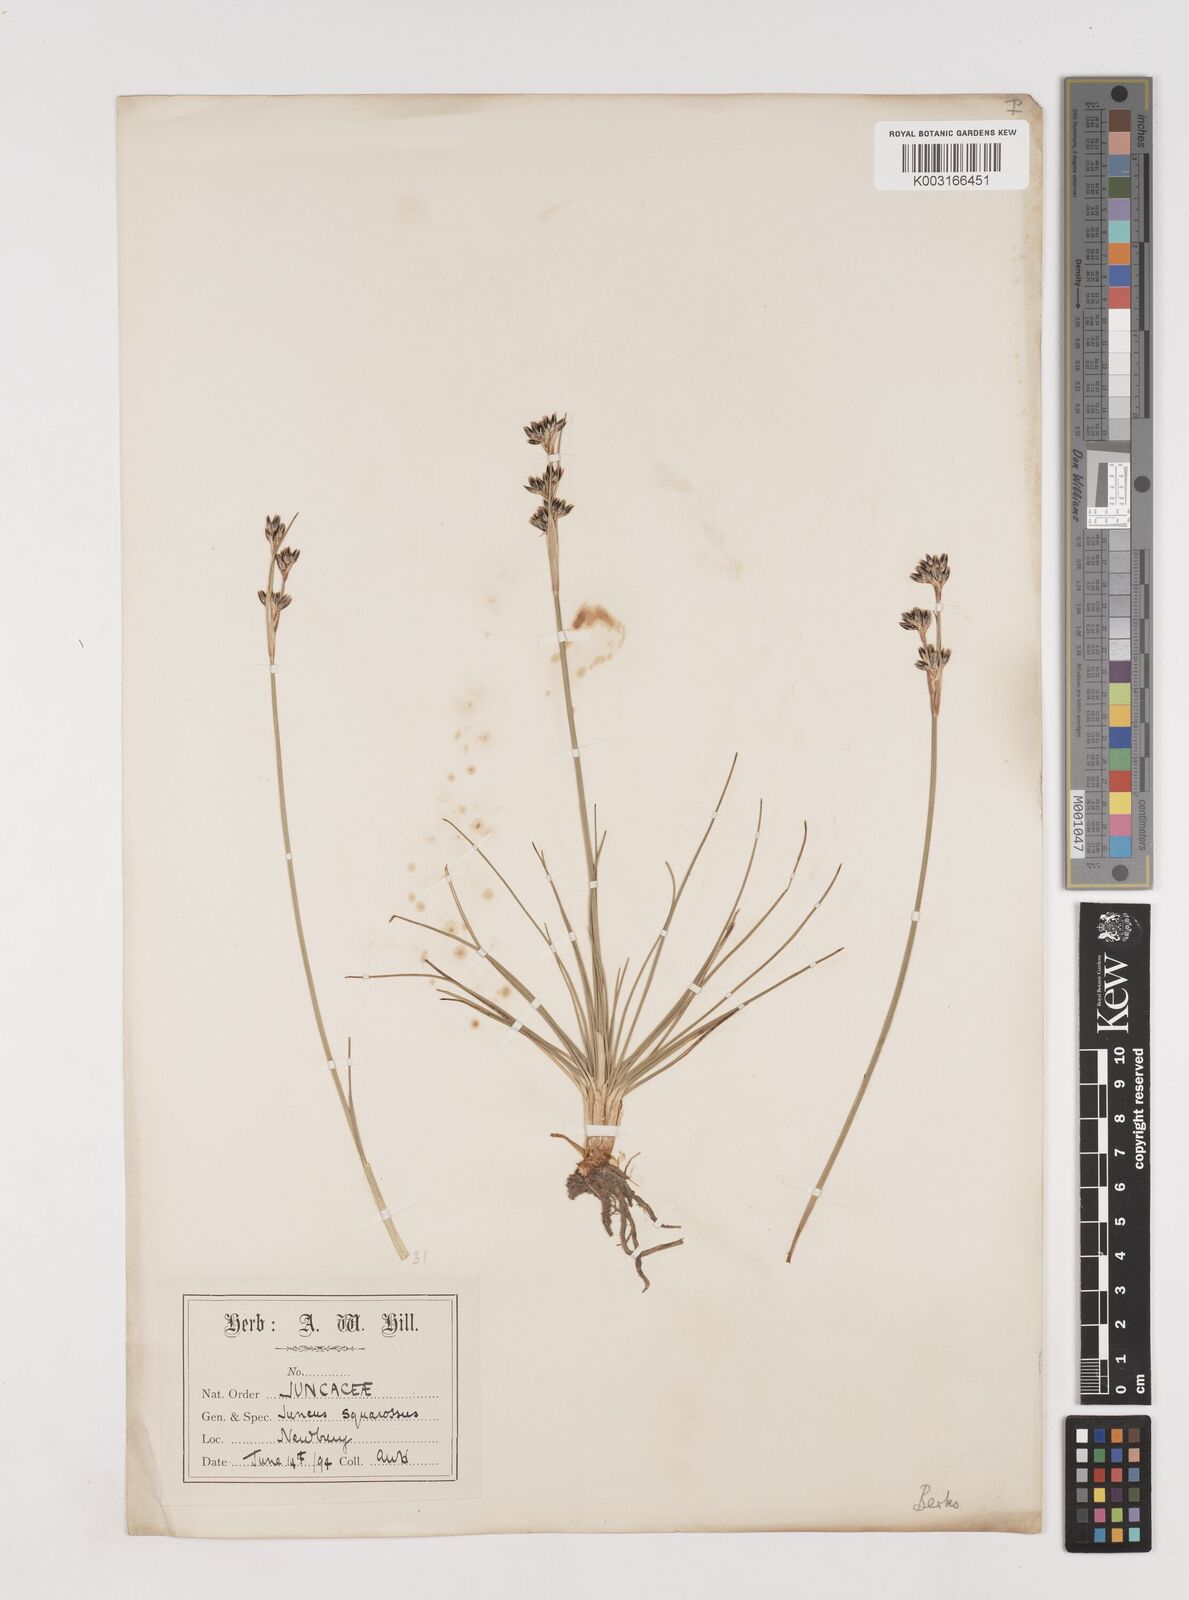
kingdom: Plantae
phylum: Tracheophyta
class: Liliopsida
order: Poales
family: Juncaceae
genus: Juncus
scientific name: Juncus squarrosus
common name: Heath rush
